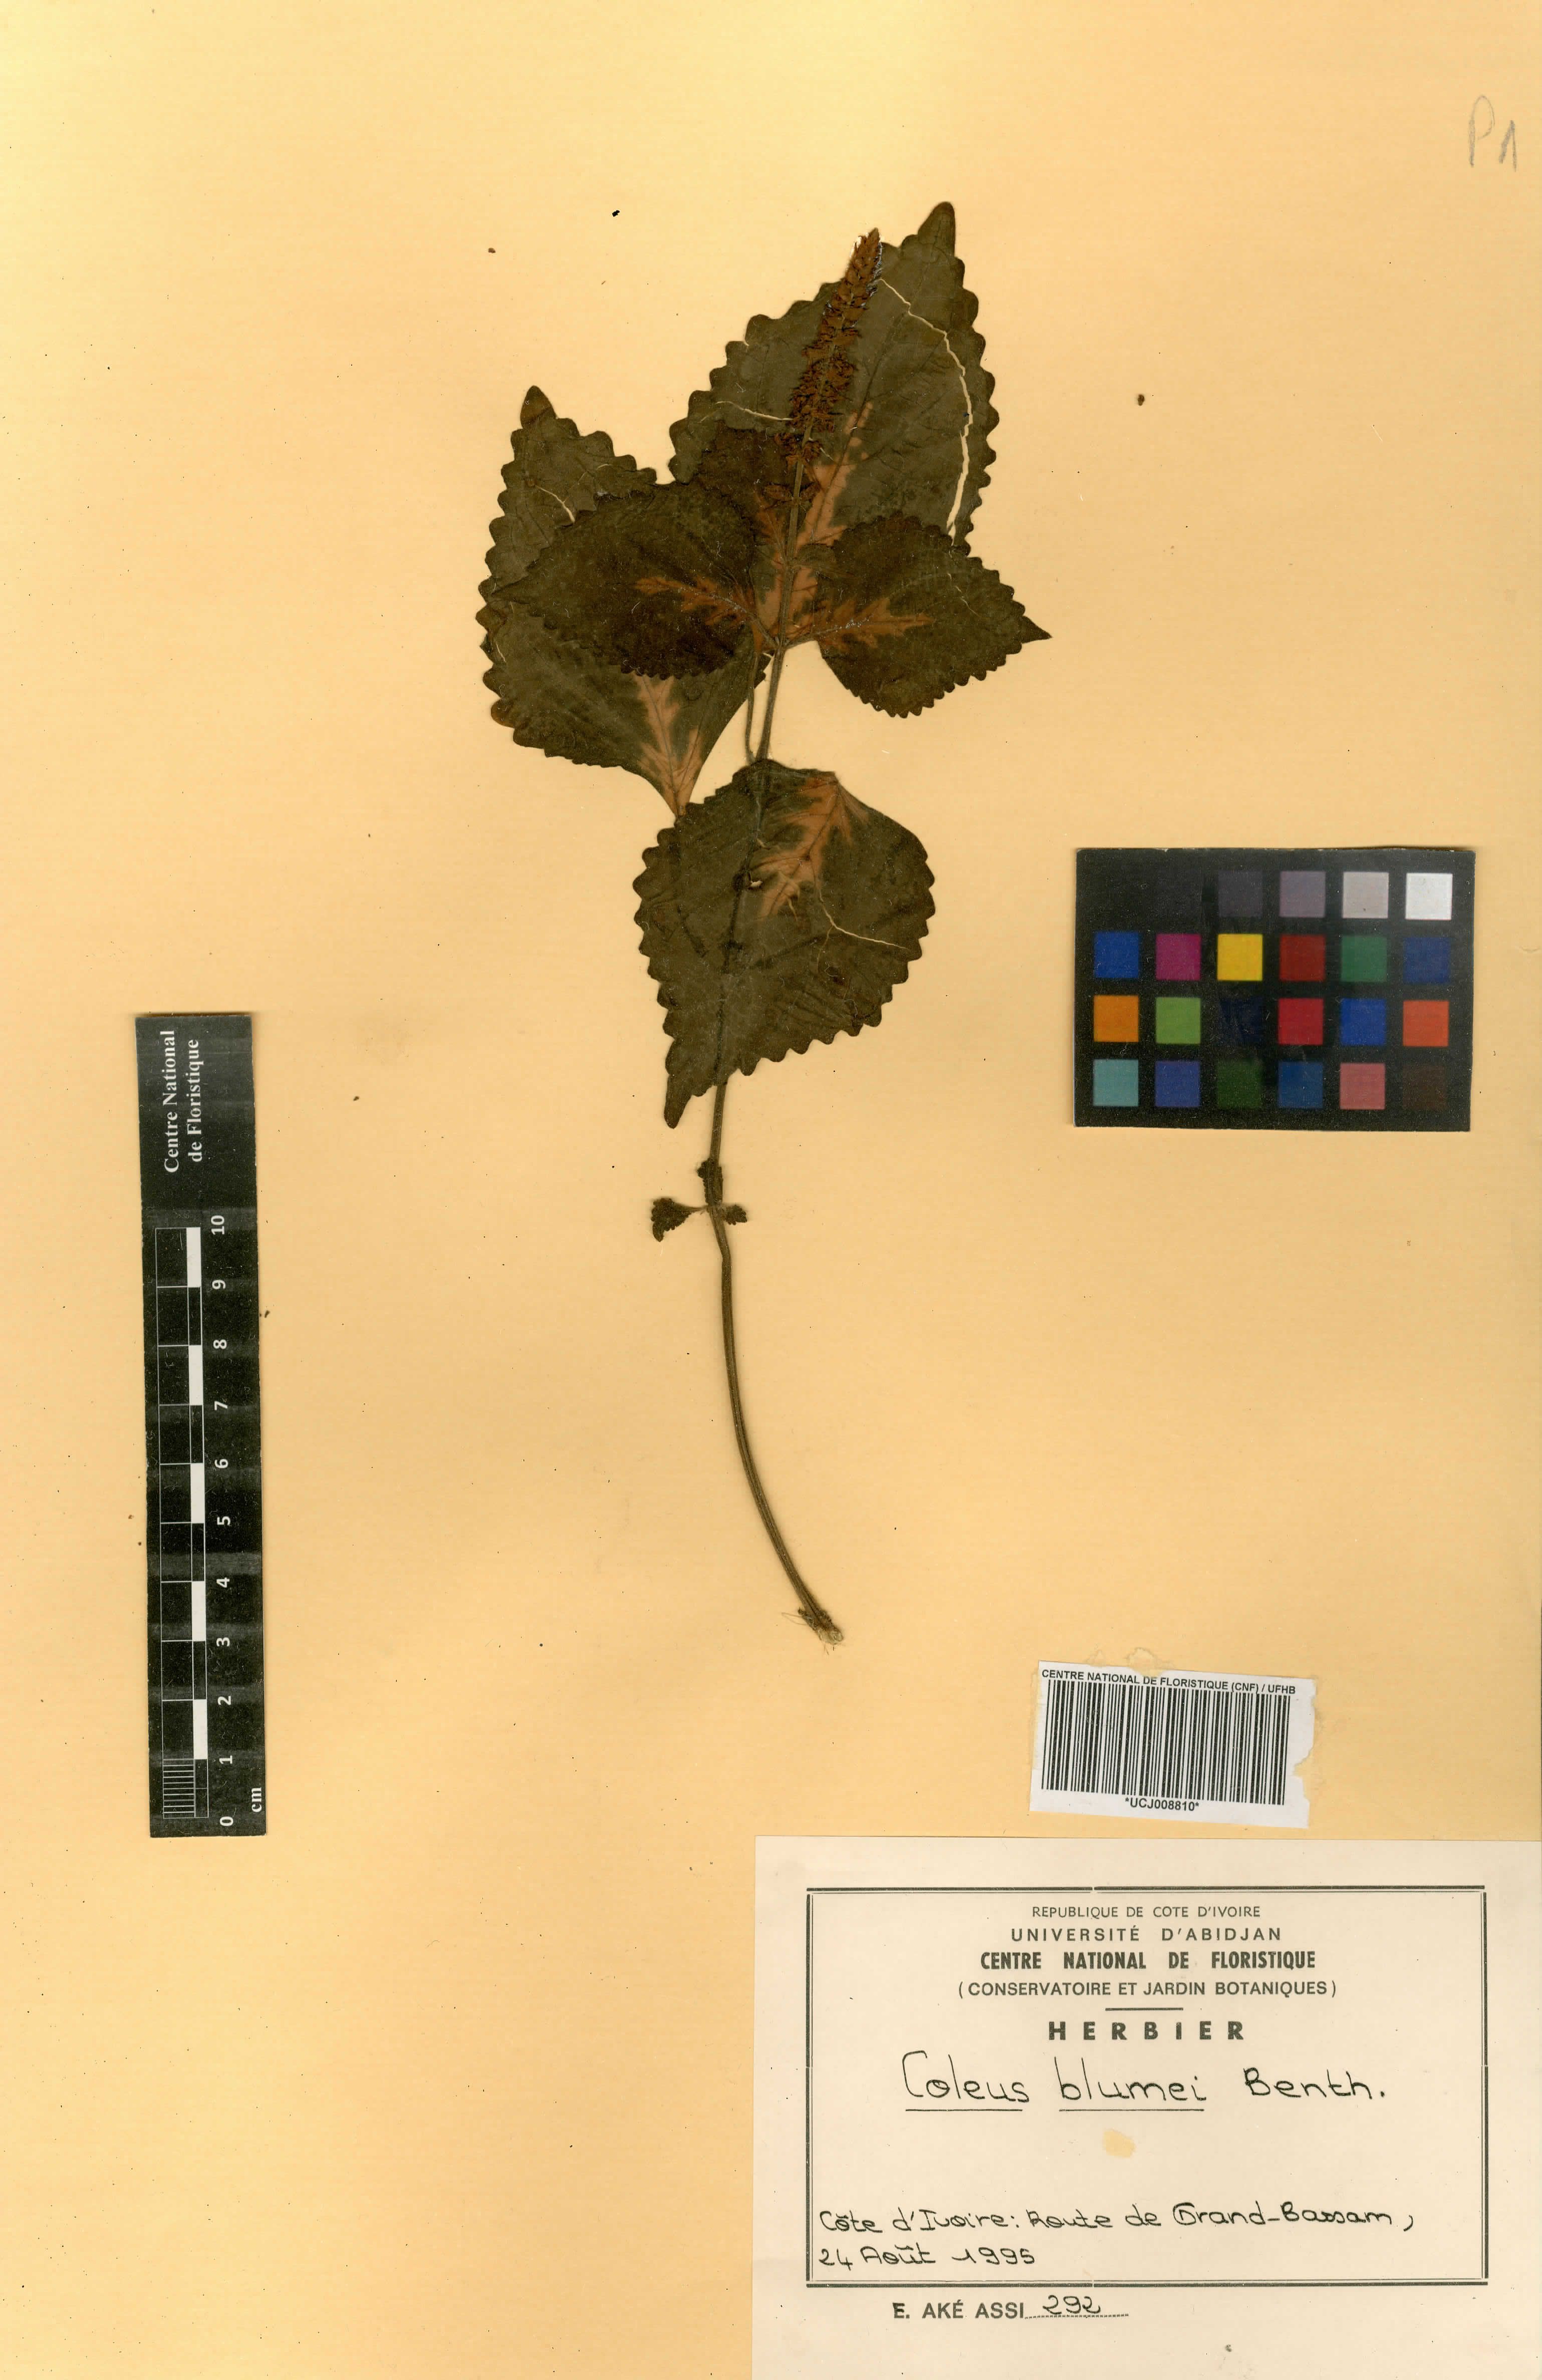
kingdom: Plantae
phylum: Tracheophyta
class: Magnoliopsida
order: Lamiales
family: Lamiaceae
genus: Coleus
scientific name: Coleus scutellarioides
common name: Coleus
